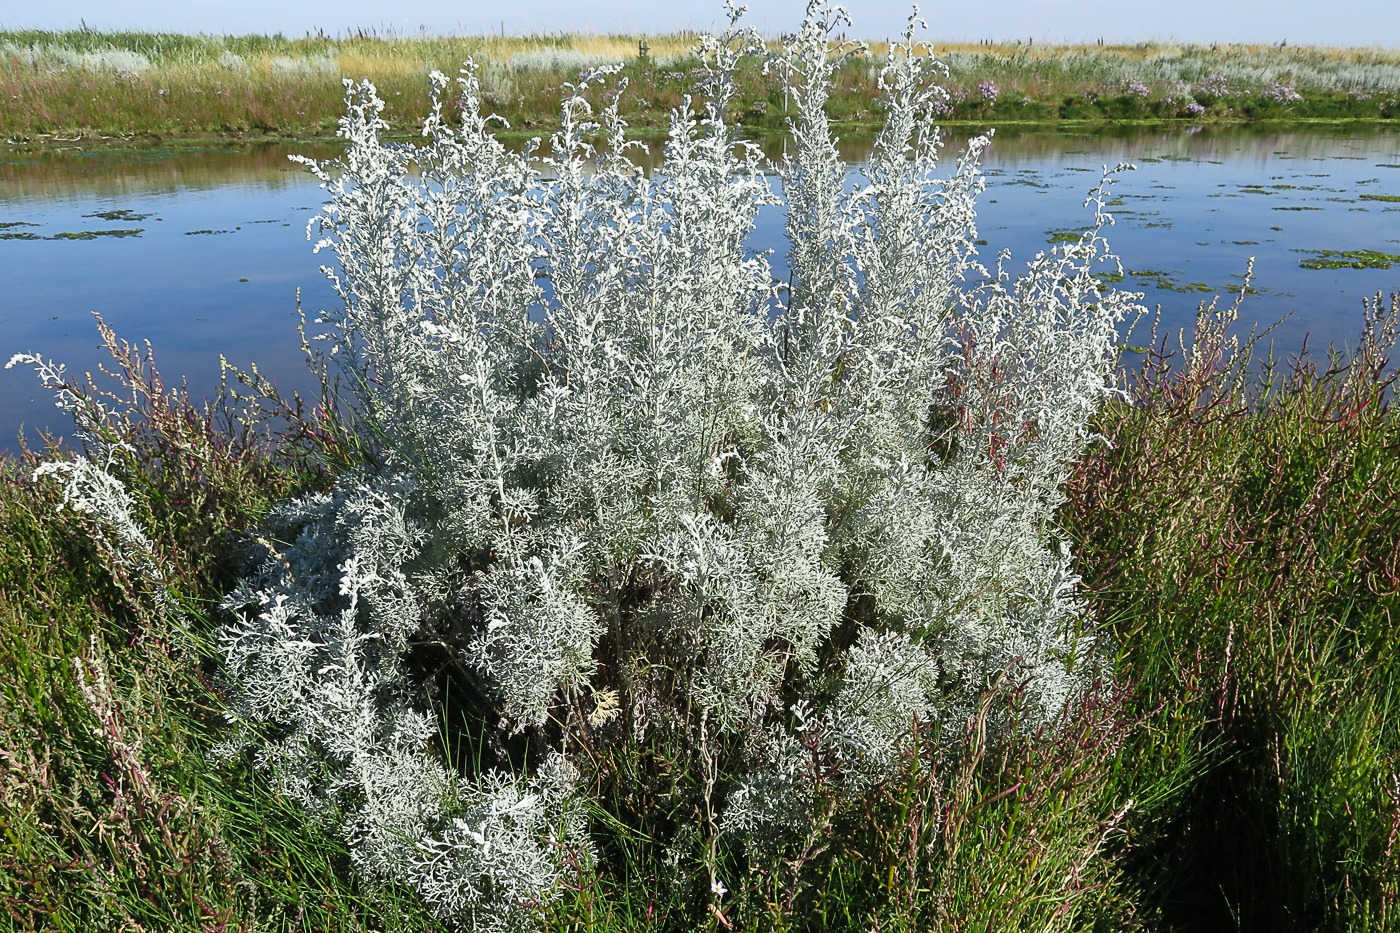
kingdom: Plantae
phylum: Tracheophyta
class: Magnoliopsida
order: Asterales
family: Asteraceae
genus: Artemisia
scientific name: Artemisia maritima
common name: Strandmalurt
